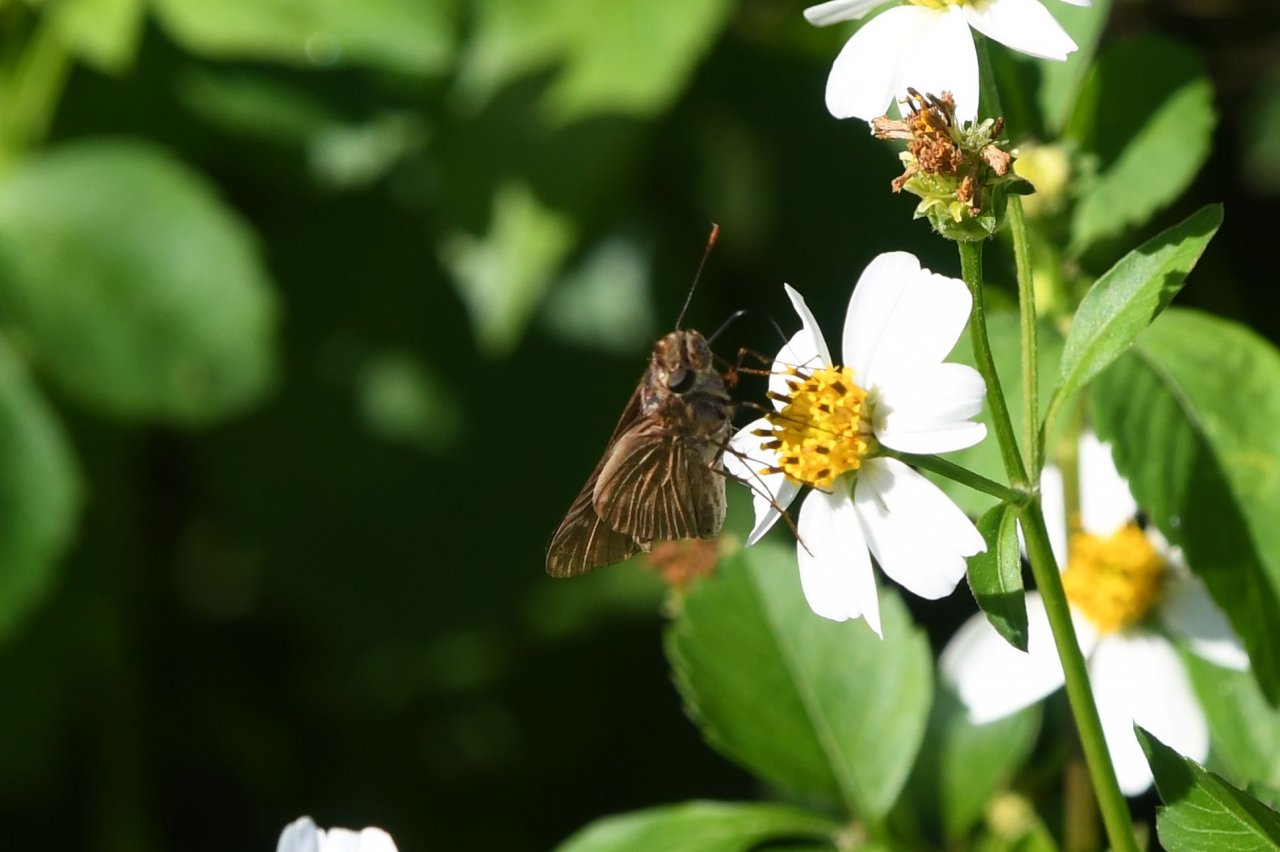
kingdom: Animalia
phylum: Arthropoda
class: Insecta
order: Lepidoptera
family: Hesperiidae
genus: Panoquina
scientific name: Panoquina ocola
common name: Ocola Skipper
